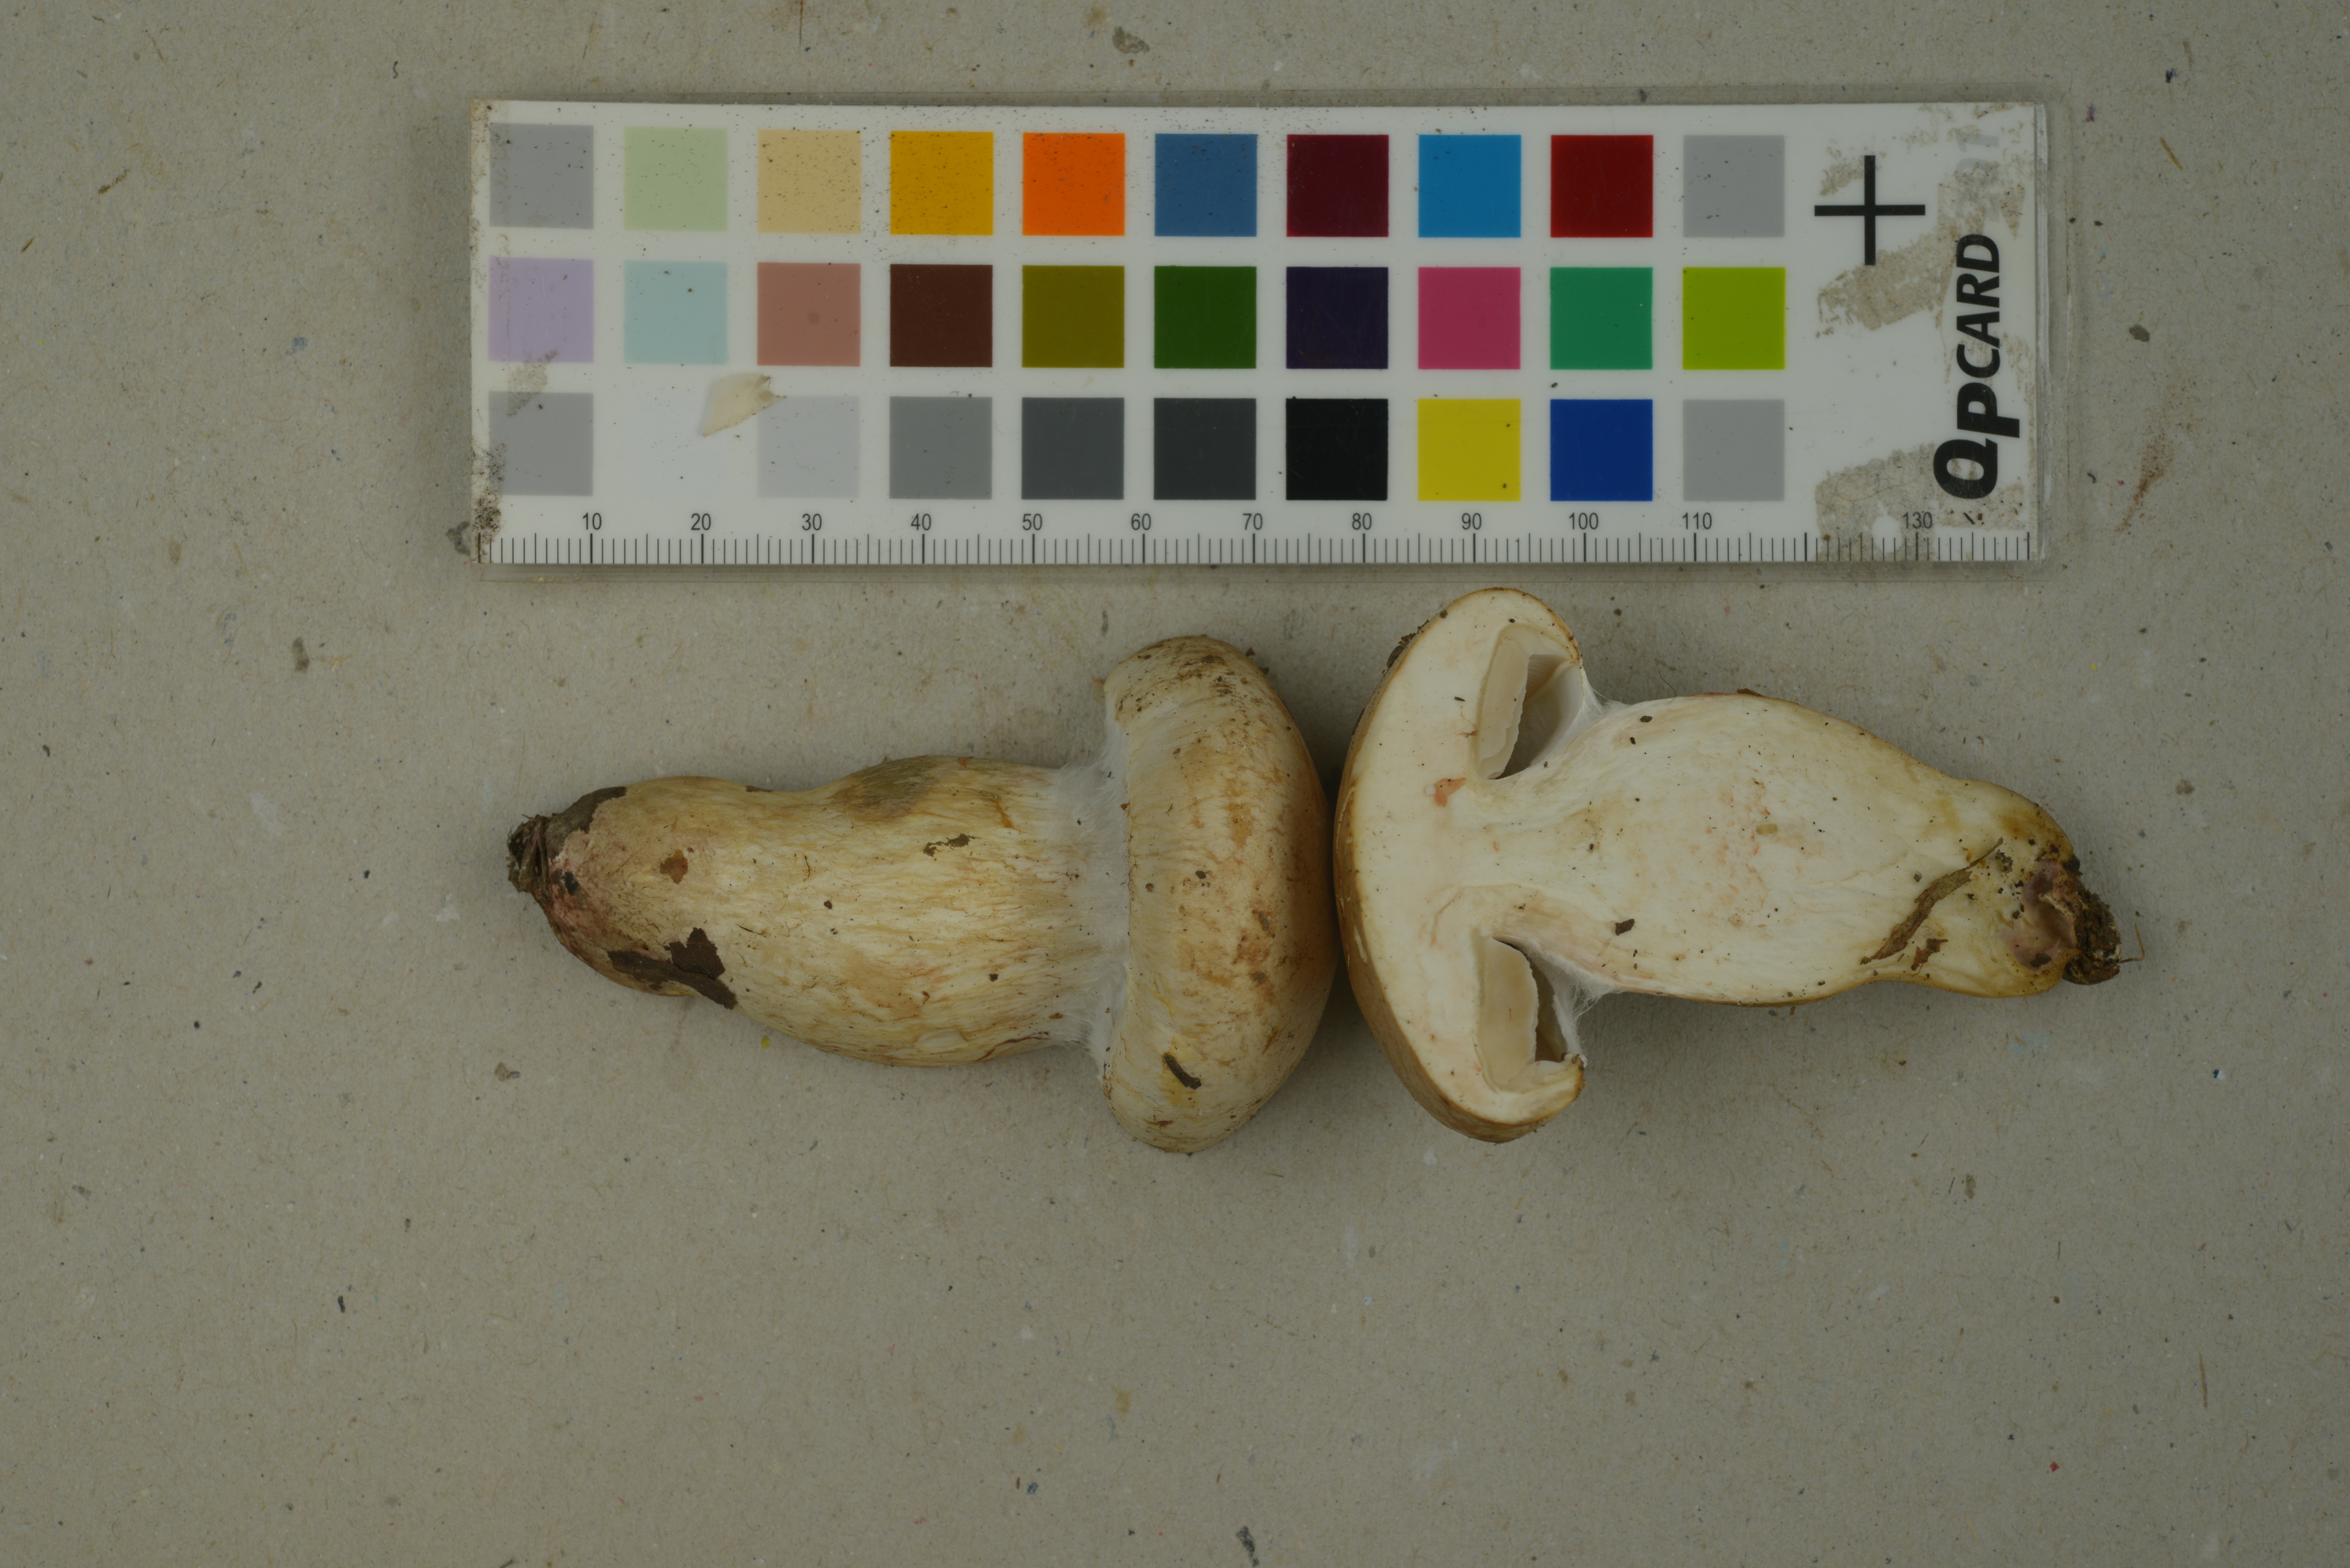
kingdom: Fungi
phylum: Basidiomycota
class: Agaricomycetes
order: Agaricales
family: Cortinariaceae
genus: Phlegmacium
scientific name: Phlegmacium argutum
